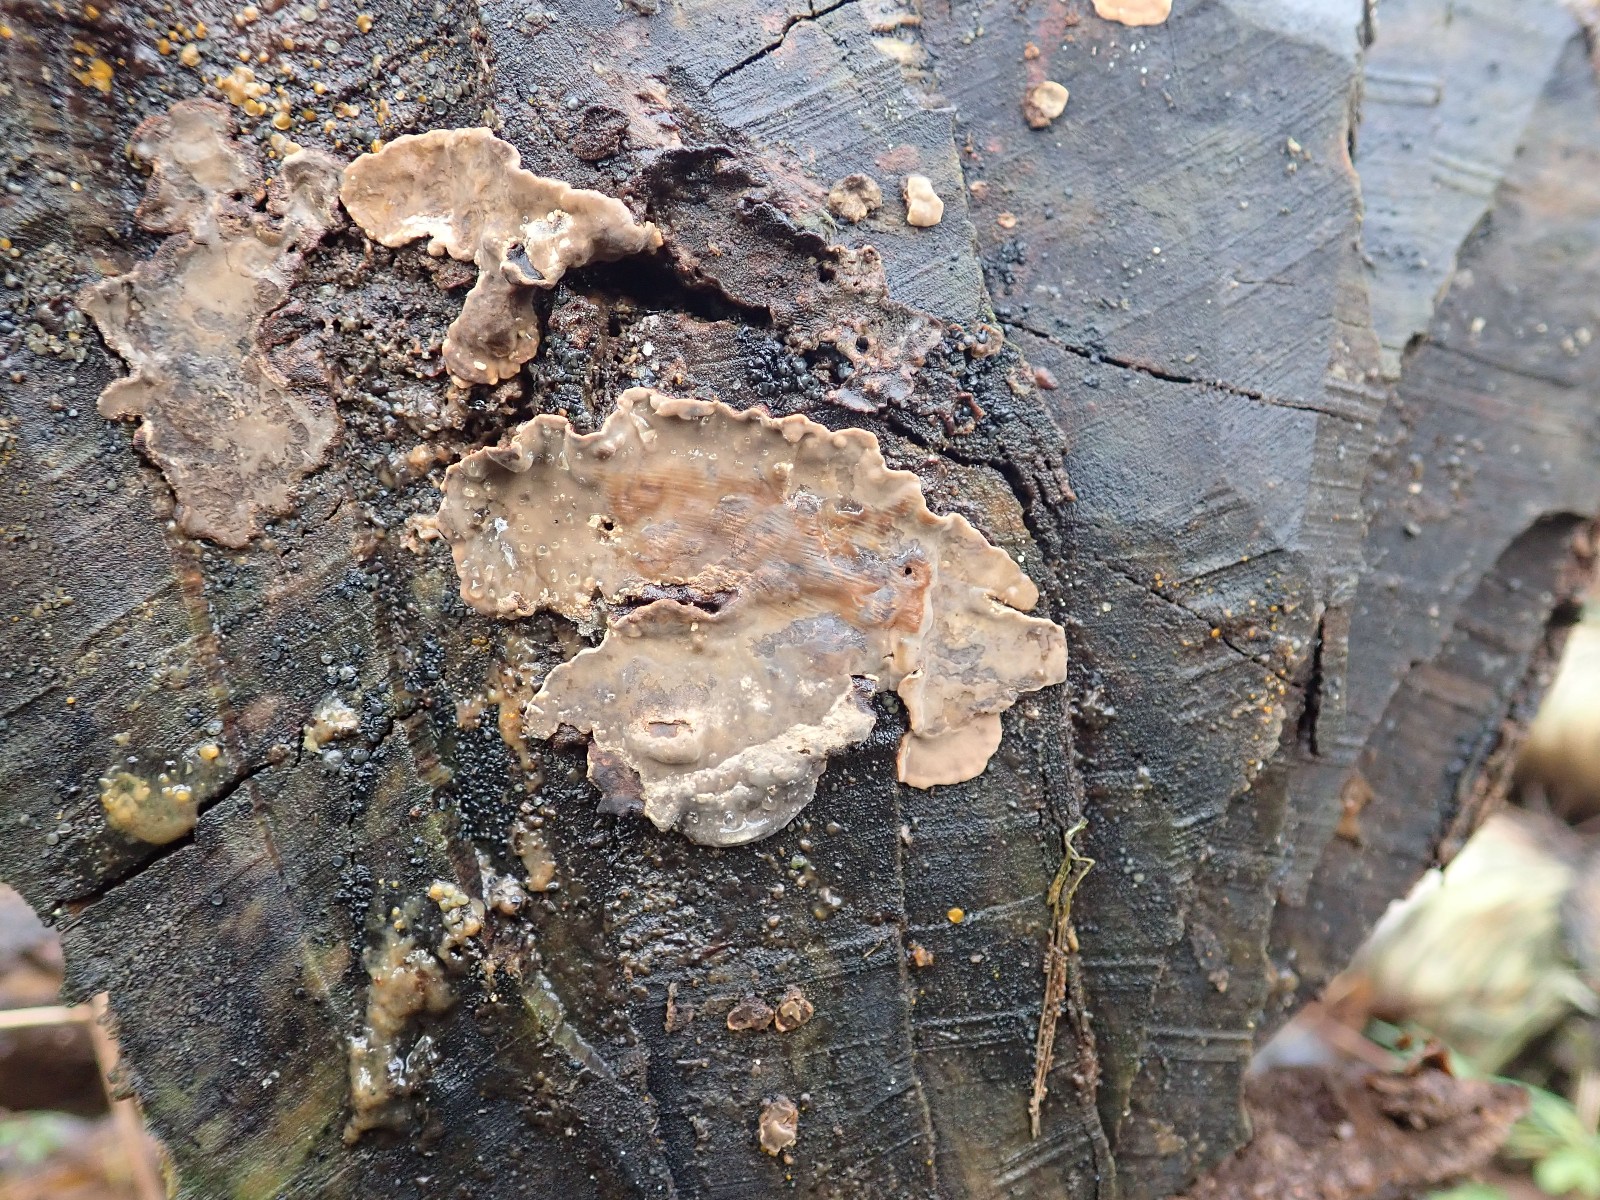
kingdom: Fungi
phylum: Basidiomycota
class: Agaricomycetes
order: Russulales
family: Stereaceae
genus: Stereum
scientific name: Stereum rugosum
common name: rynket lædersvamp
